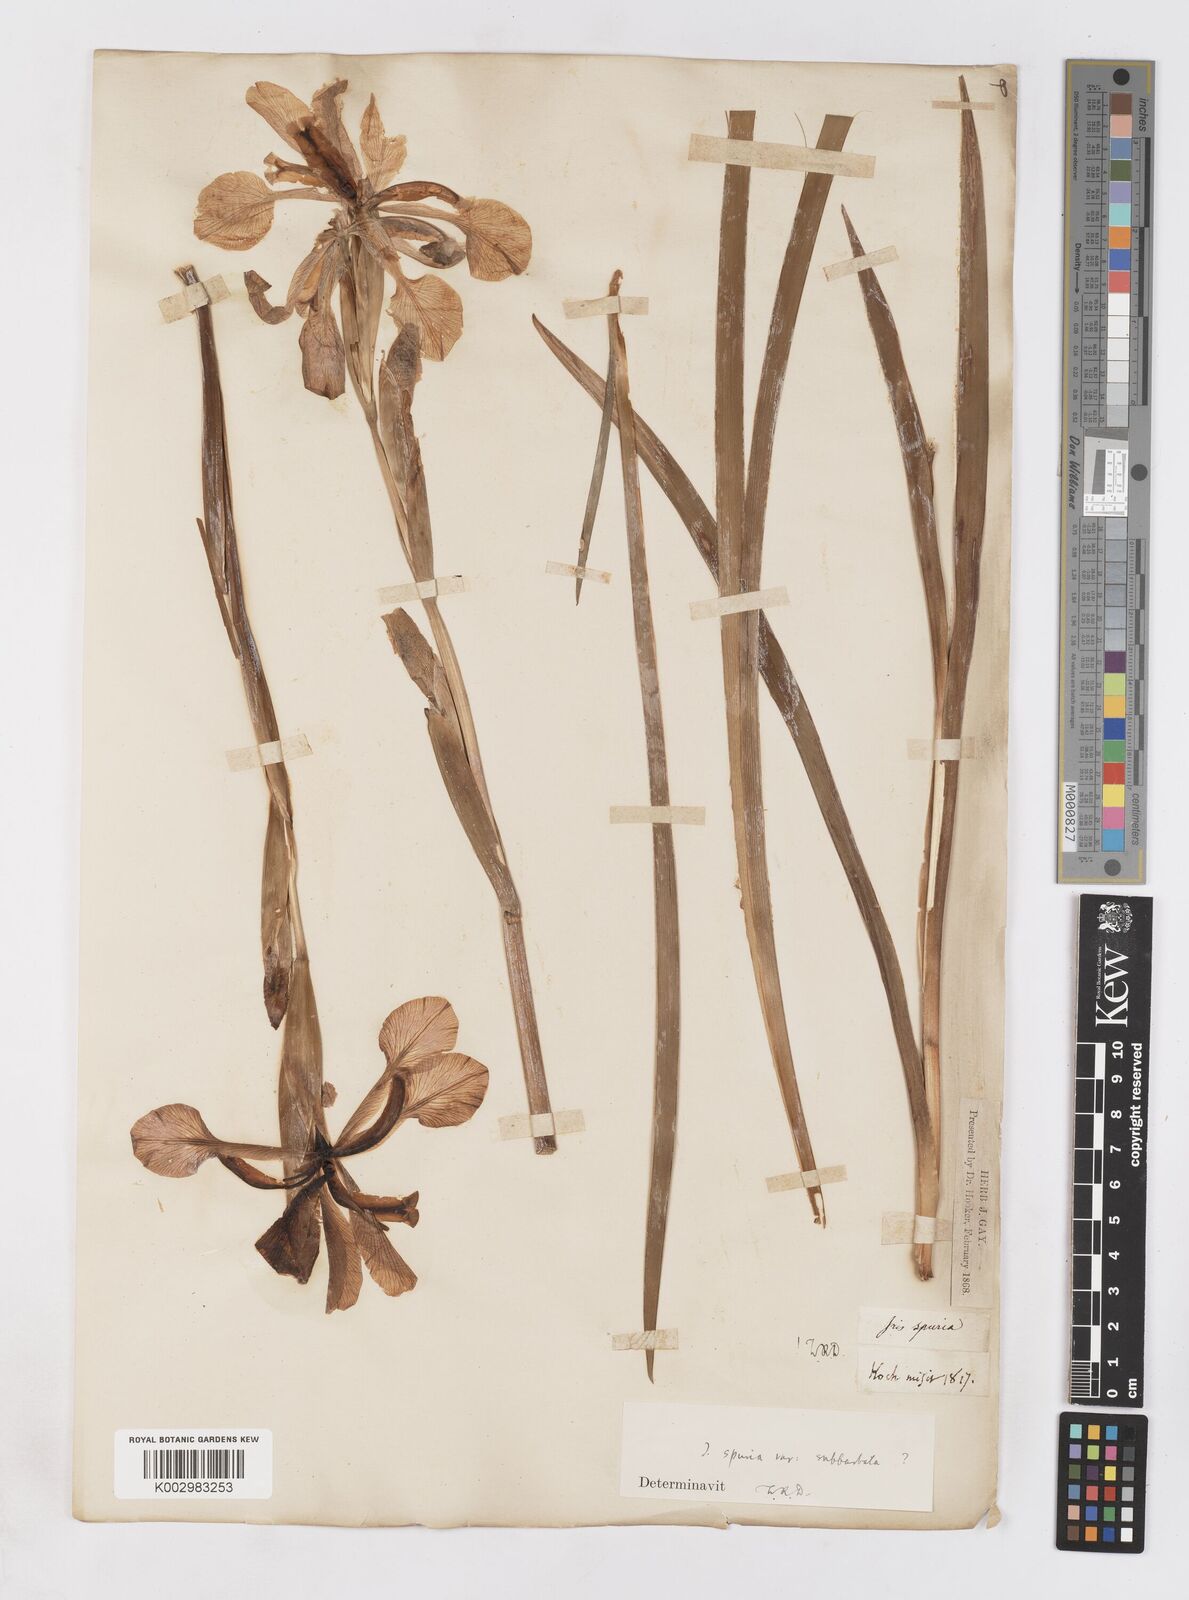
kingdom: Plantae
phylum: Tracheophyta
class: Liliopsida
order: Asparagales
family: Iridaceae
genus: Iris
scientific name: Iris spuria
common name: Blue iris
